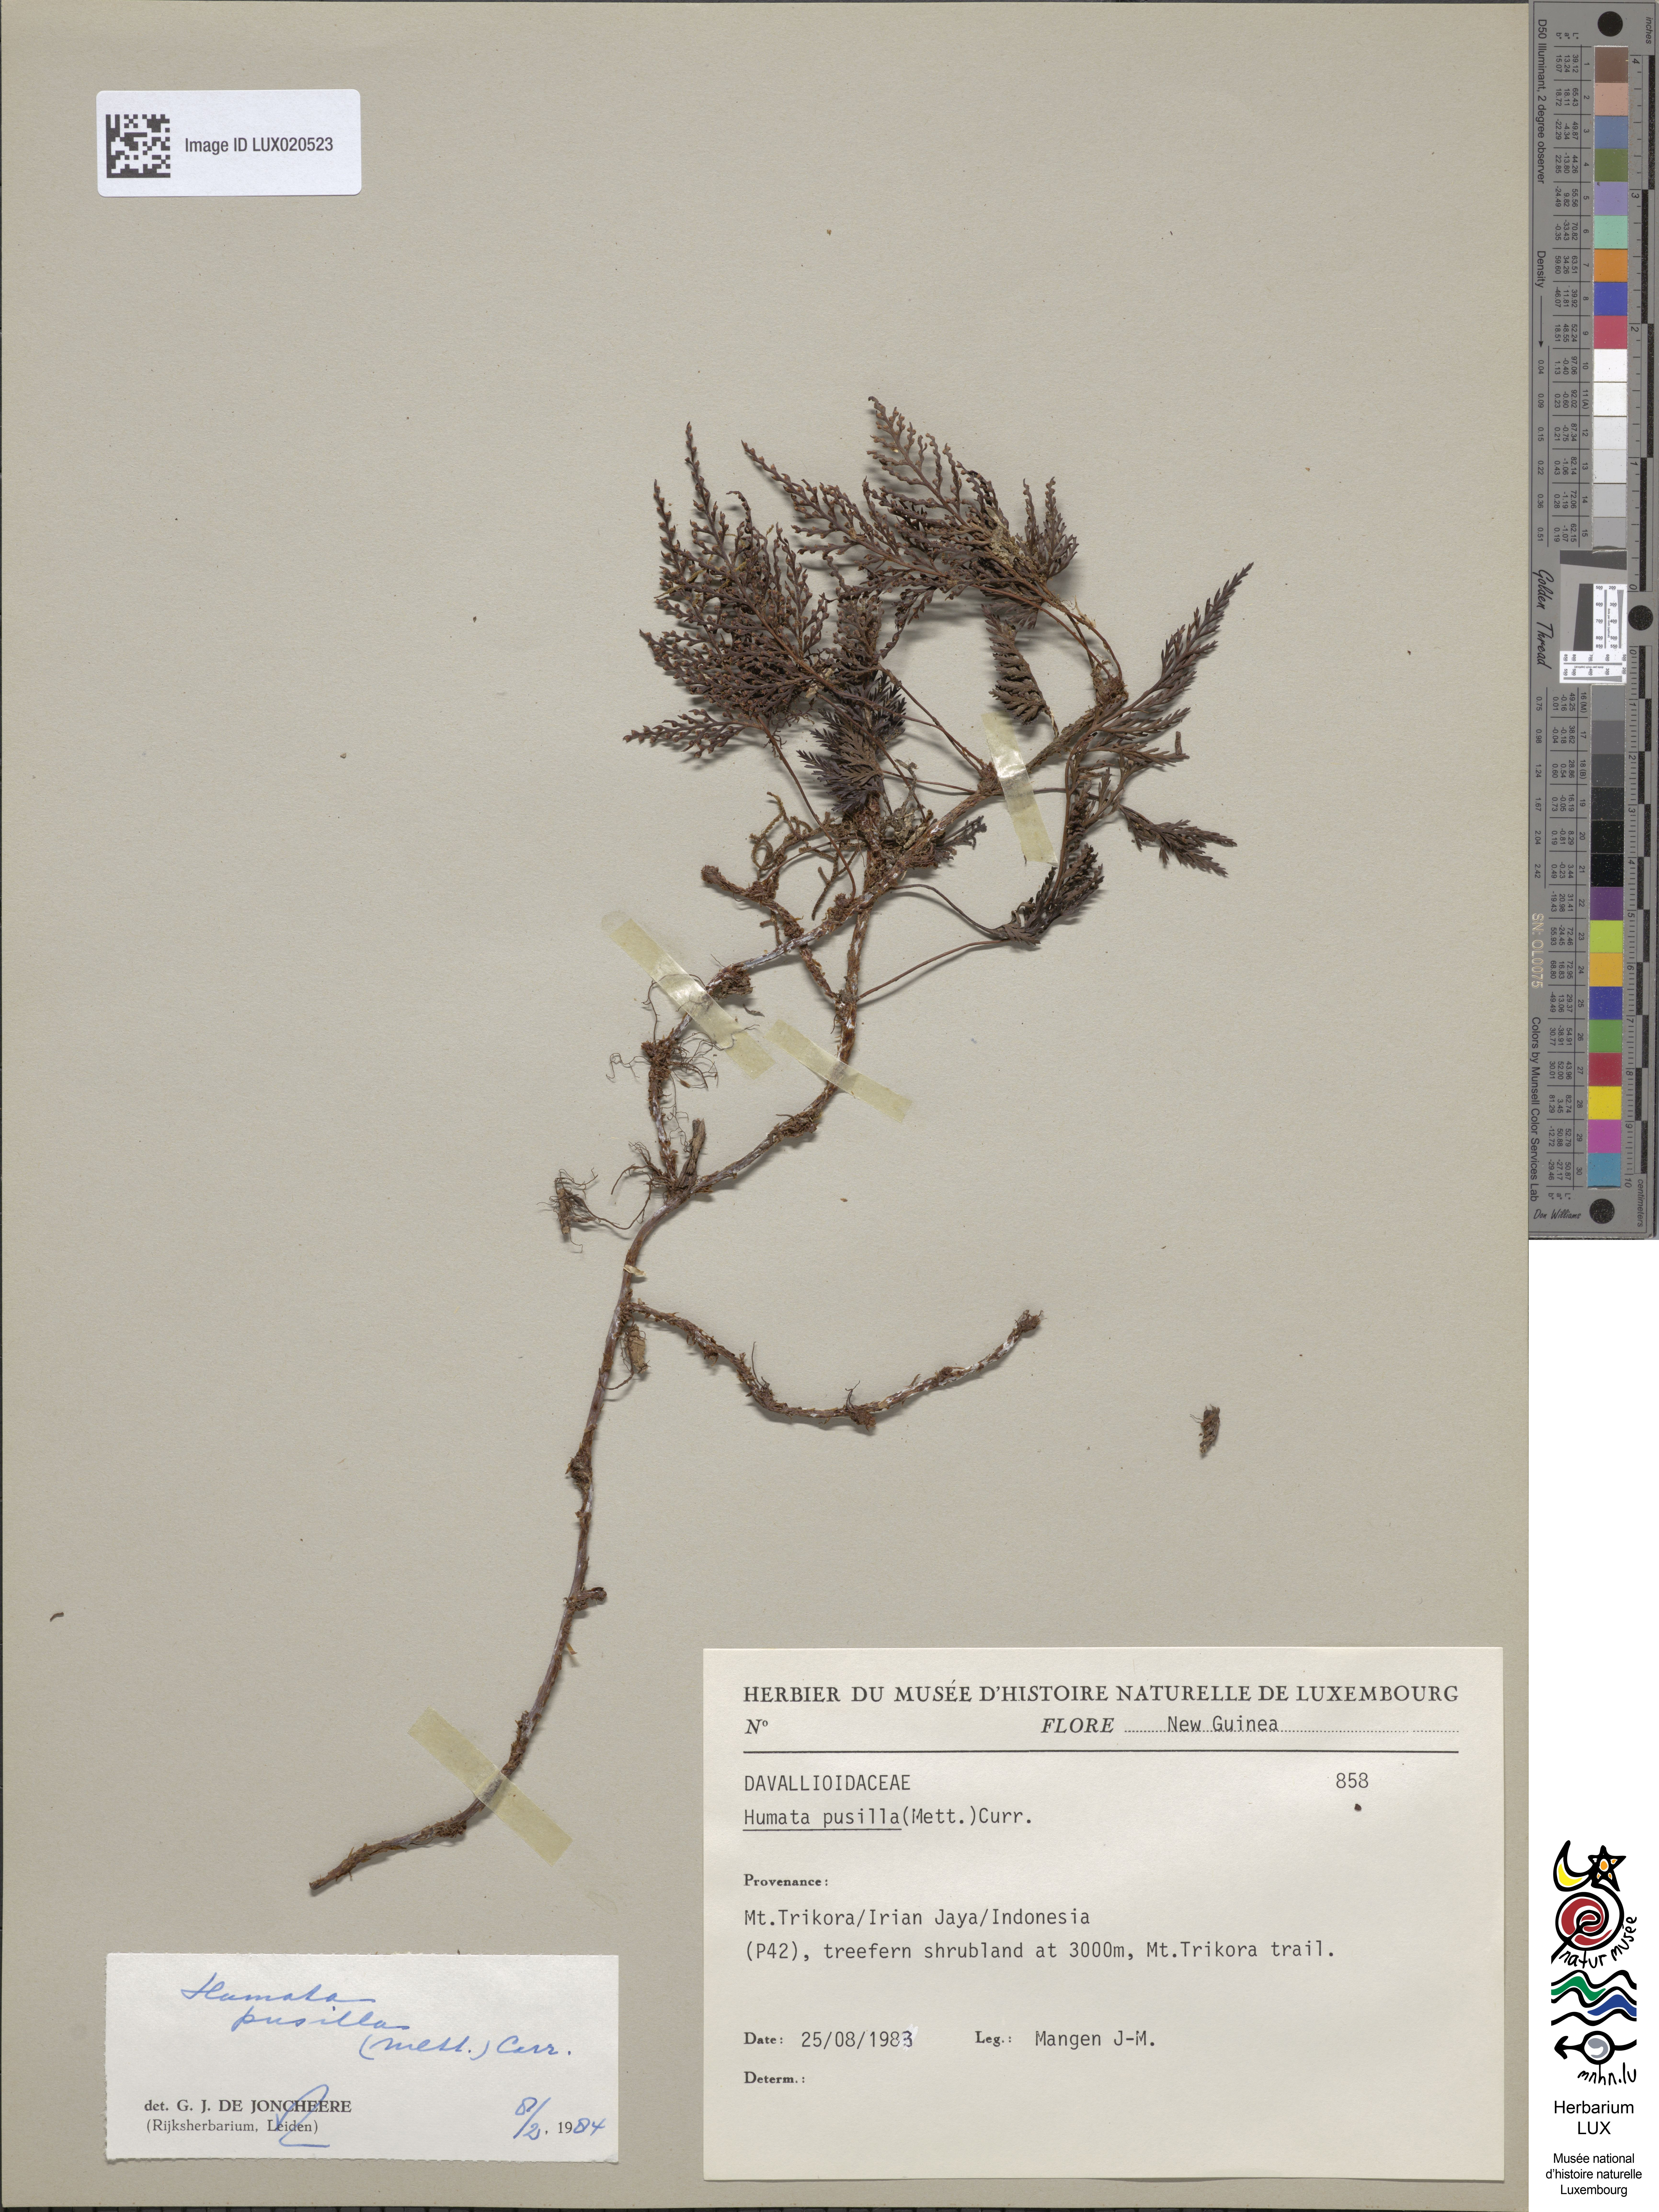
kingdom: Plantae
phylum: Tracheophyta
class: Polypodiopsida
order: Polypodiales
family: Davalliaceae
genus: Davallia
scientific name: Davallia pusilla
